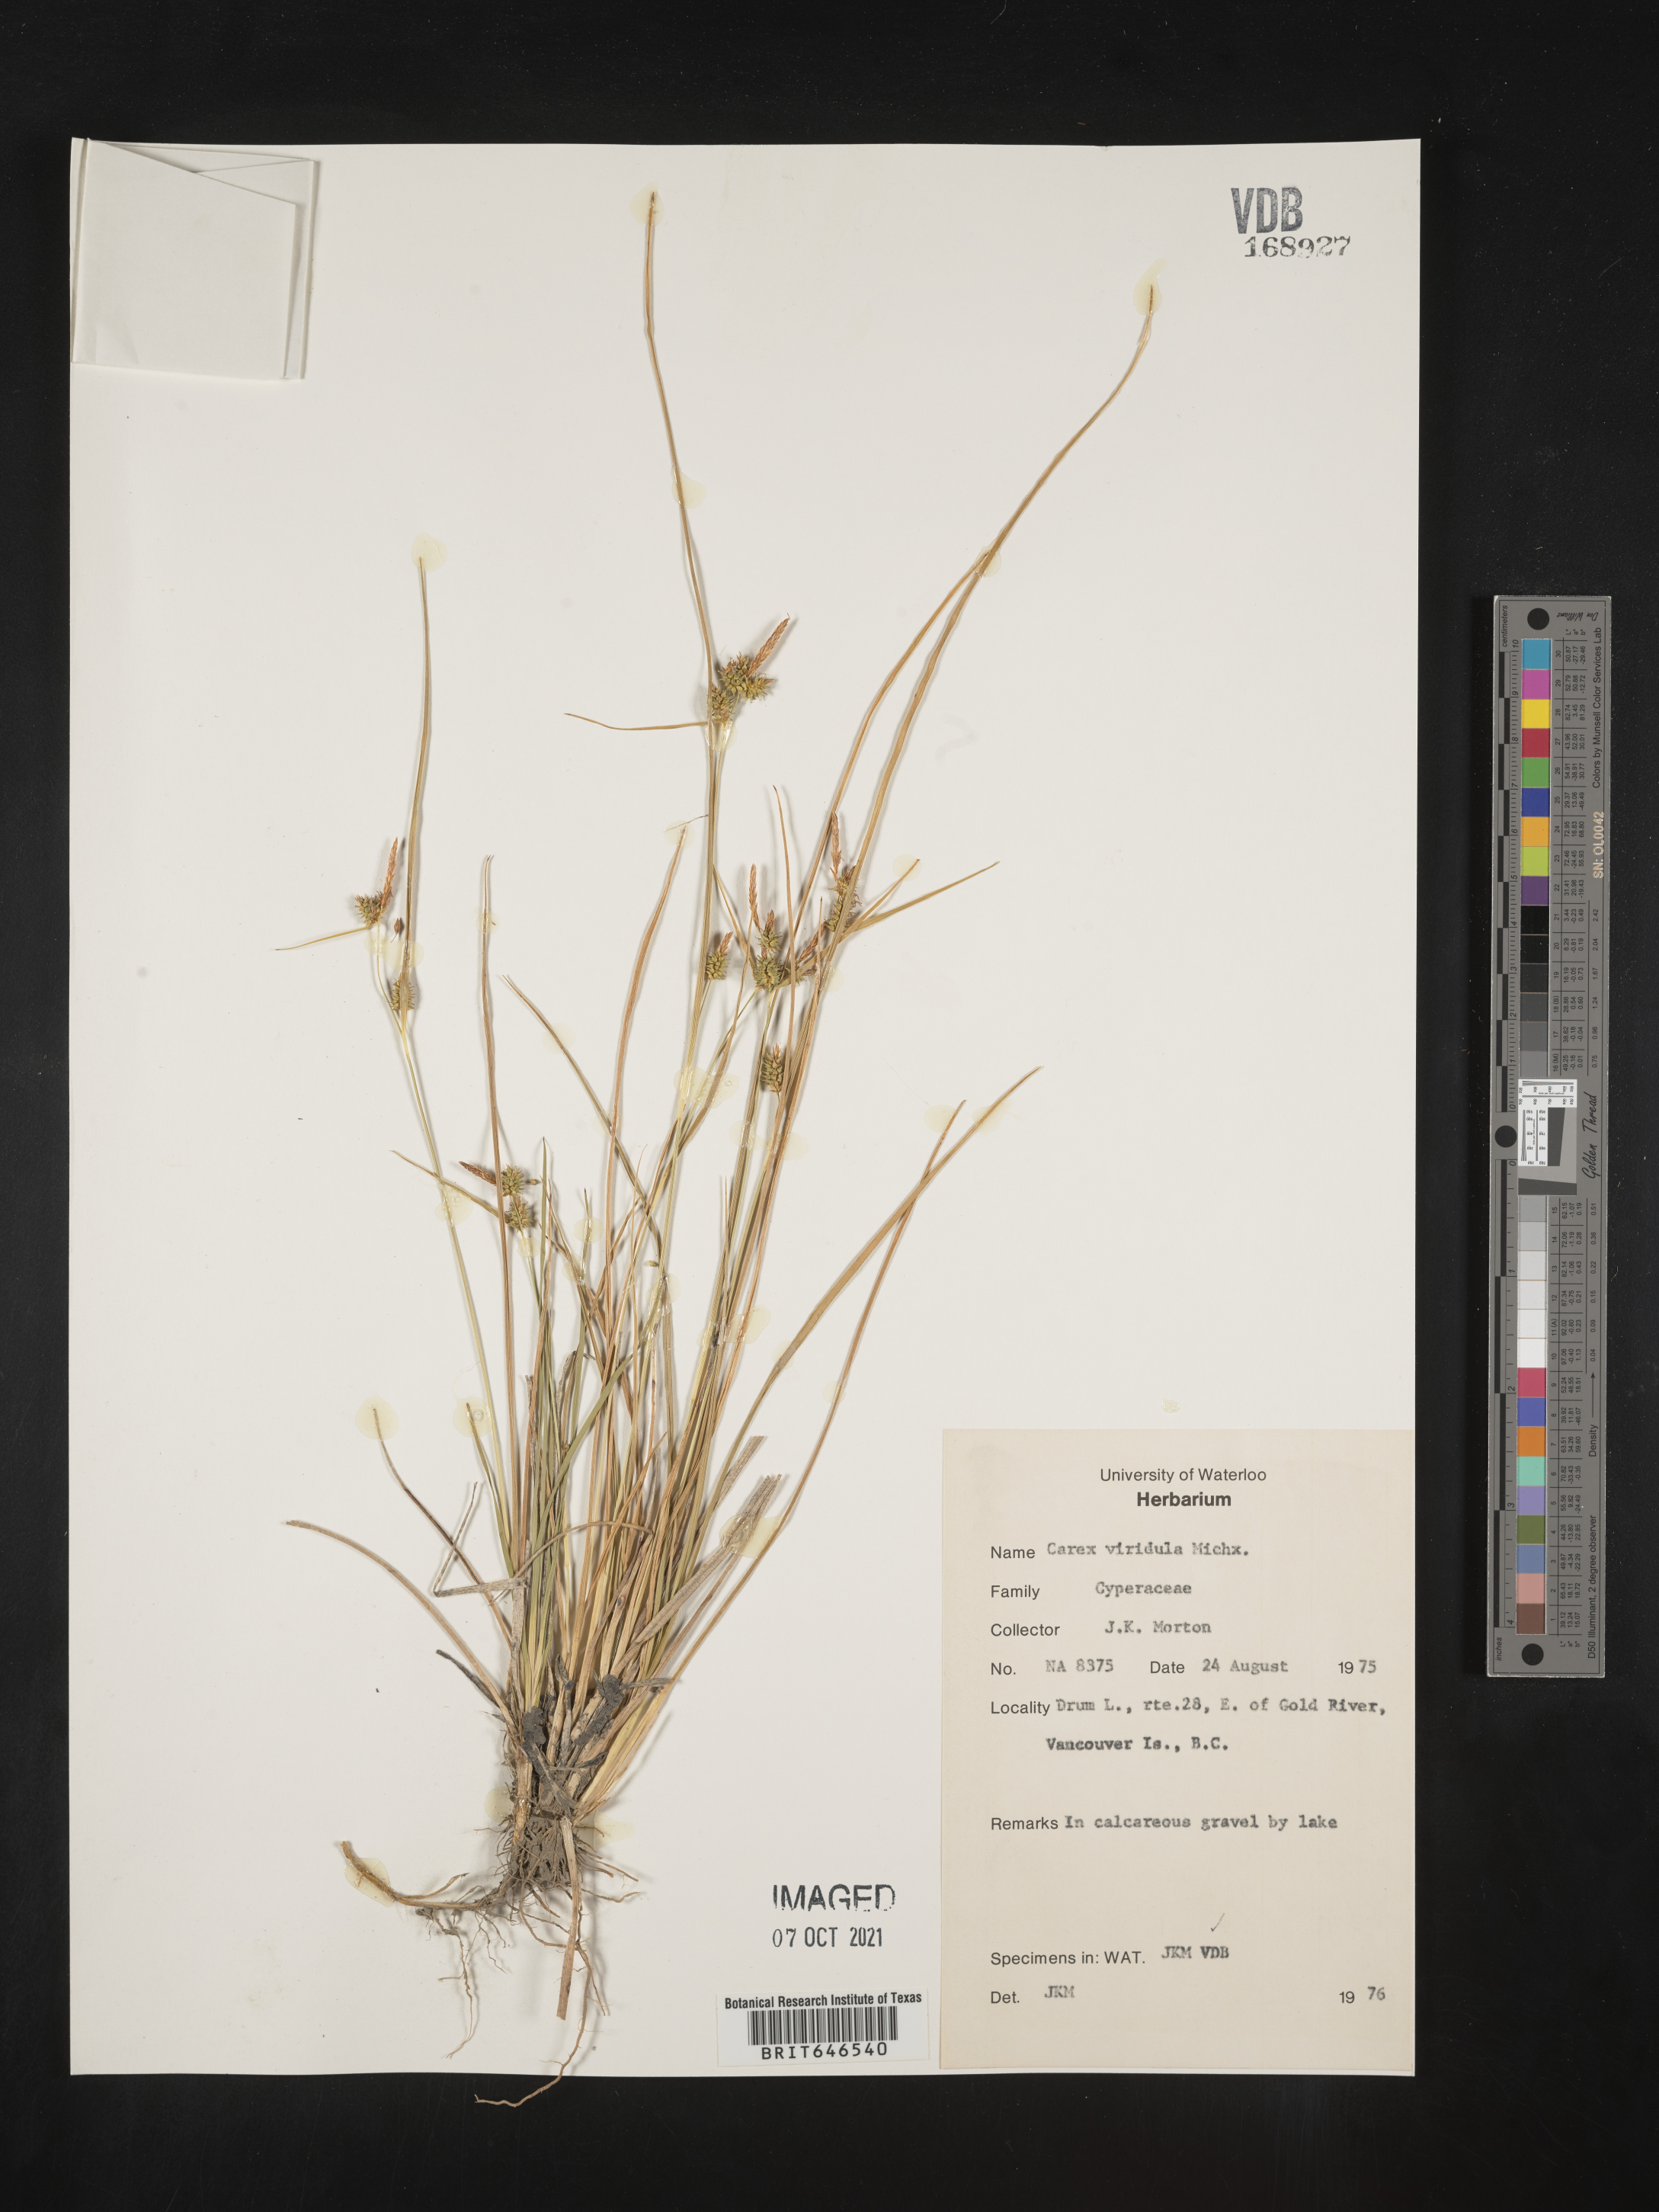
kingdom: Plantae
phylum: Tracheophyta
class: Liliopsida
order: Poales
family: Cyperaceae
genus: Carex
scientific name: Carex oederi
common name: Common & small-fruited yellow-sedge
